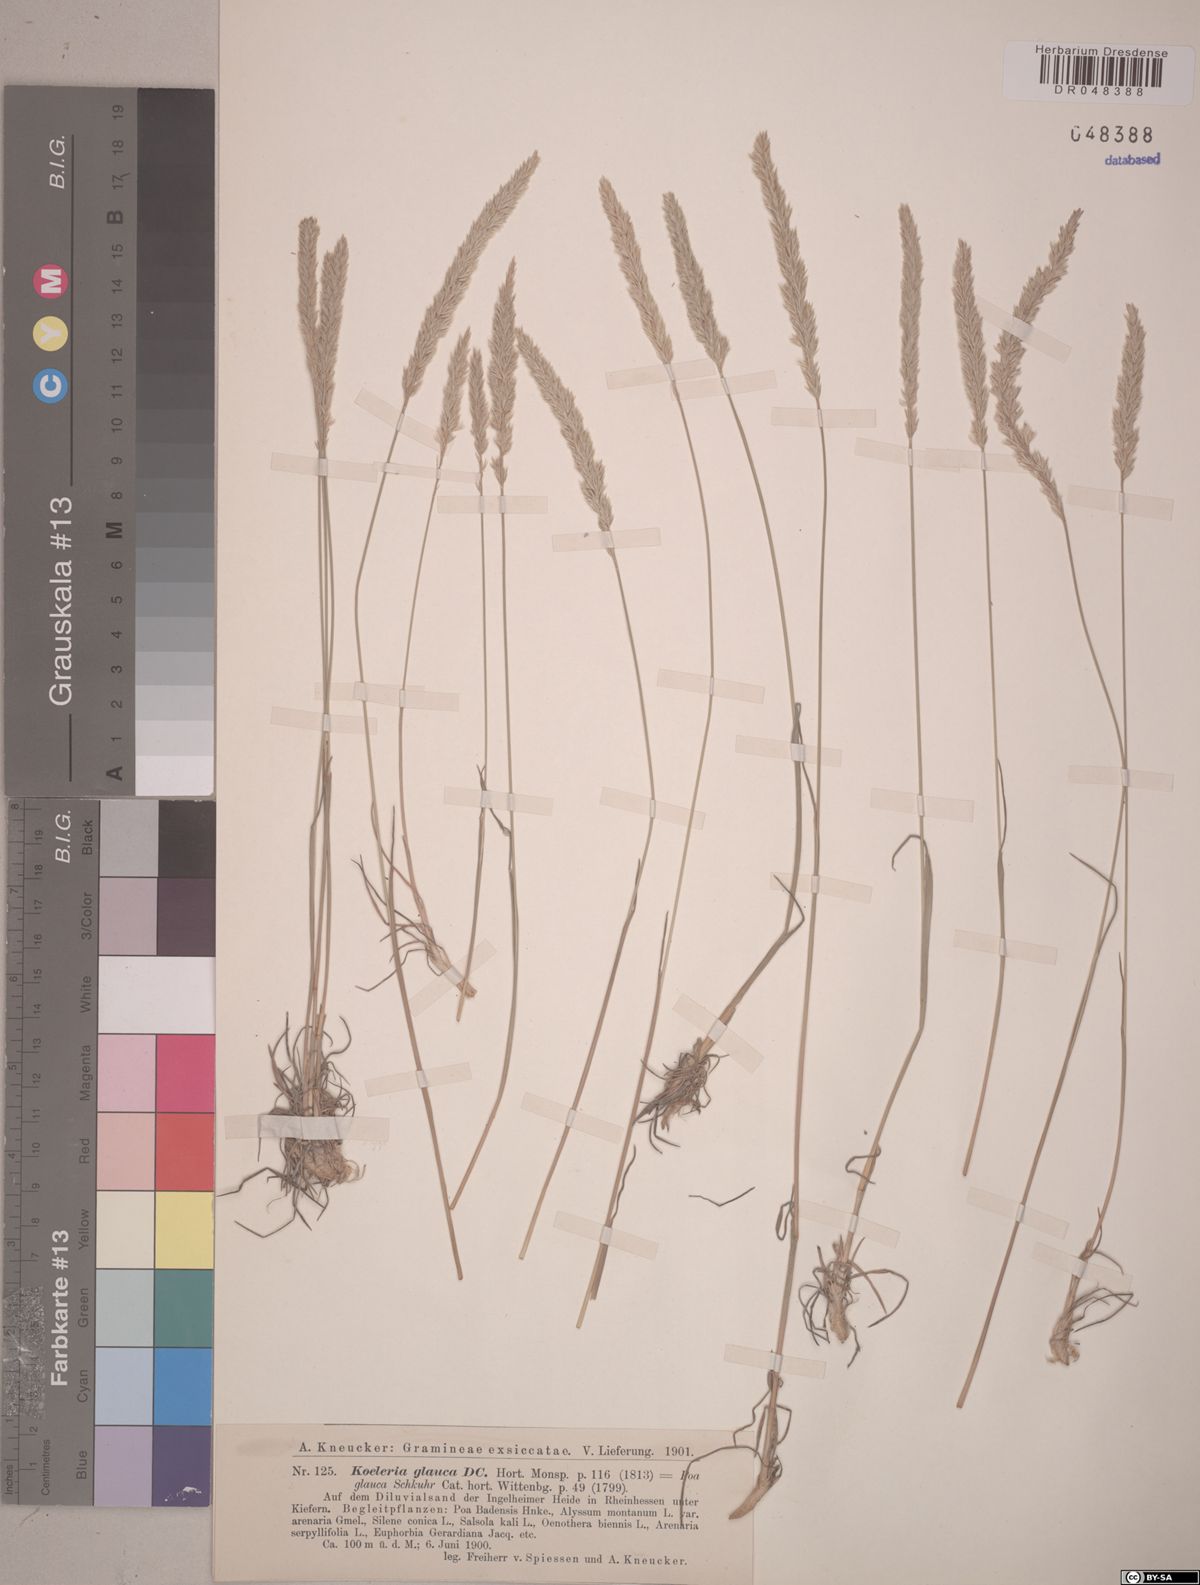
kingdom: Plantae
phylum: Tracheophyta
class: Liliopsida
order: Poales
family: Poaceae
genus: Koeleria
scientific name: Koeleria glauca
